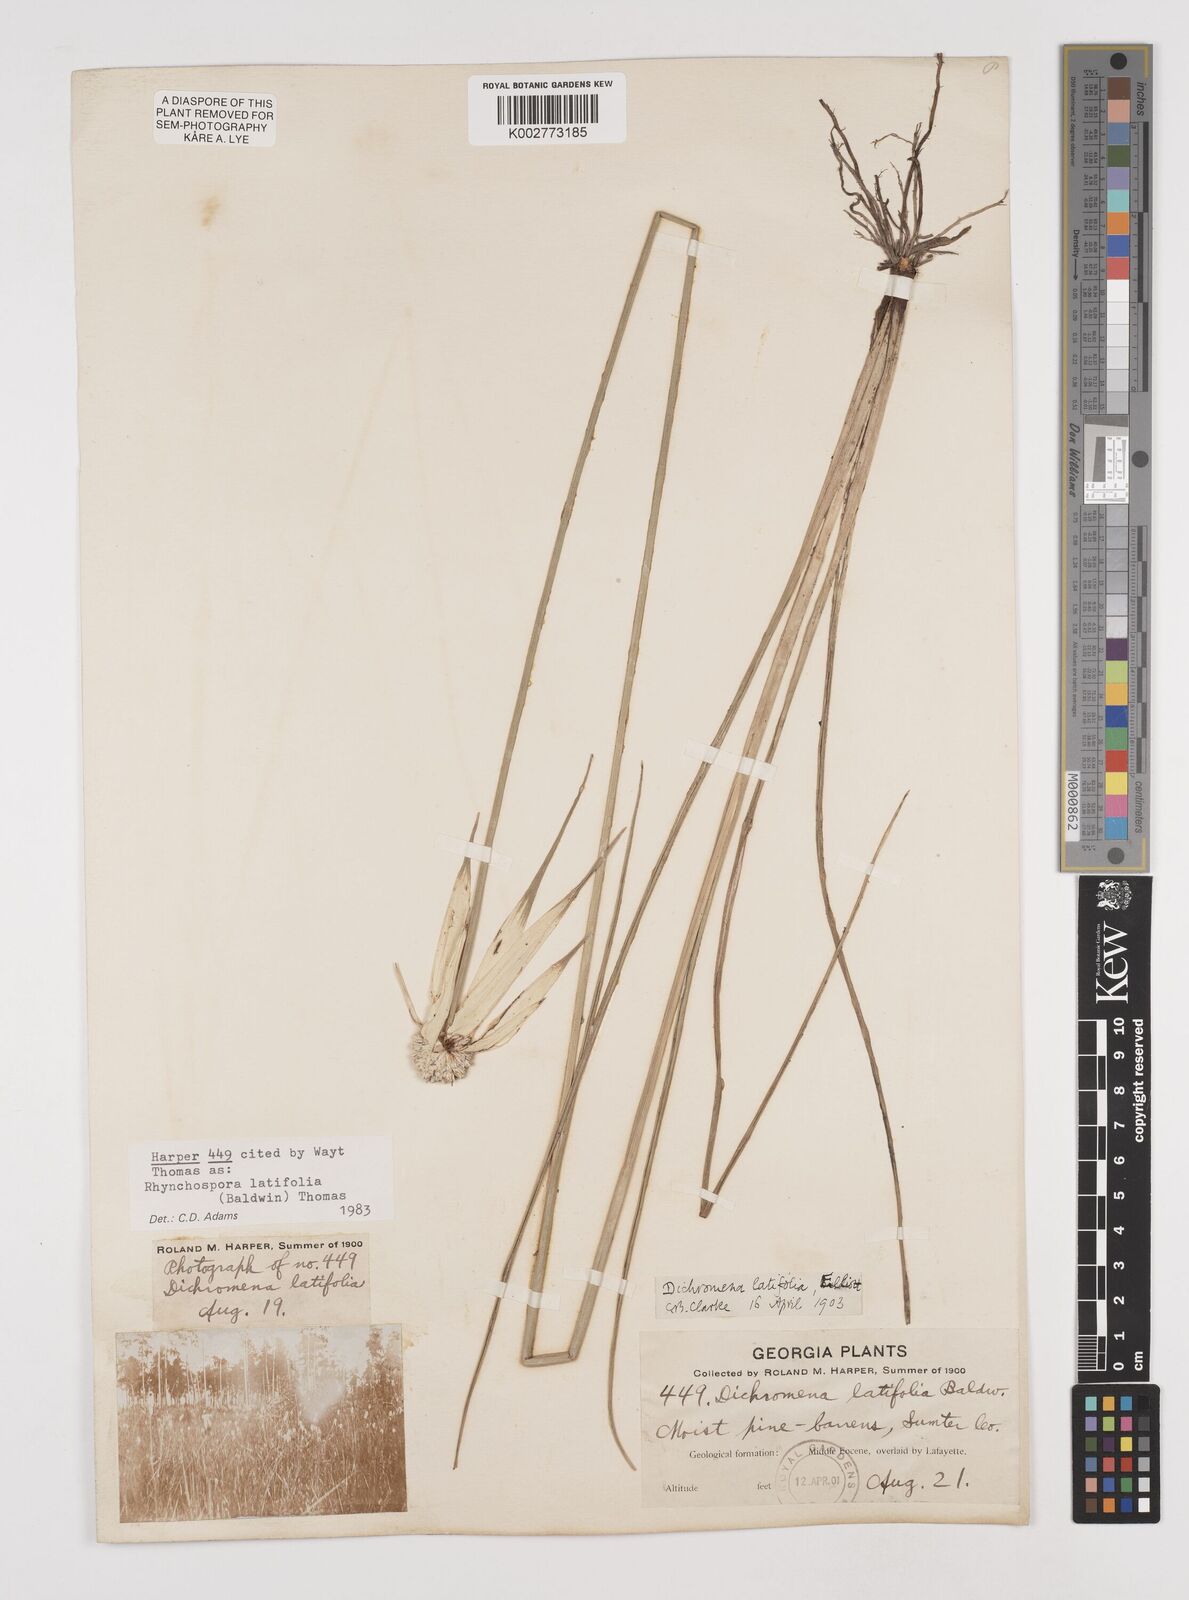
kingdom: Plantae
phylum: Tracheophyta
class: Liliopsida
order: Poales
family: Cyperaceae
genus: Rhynchospora
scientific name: Rhynchospora latifolia
